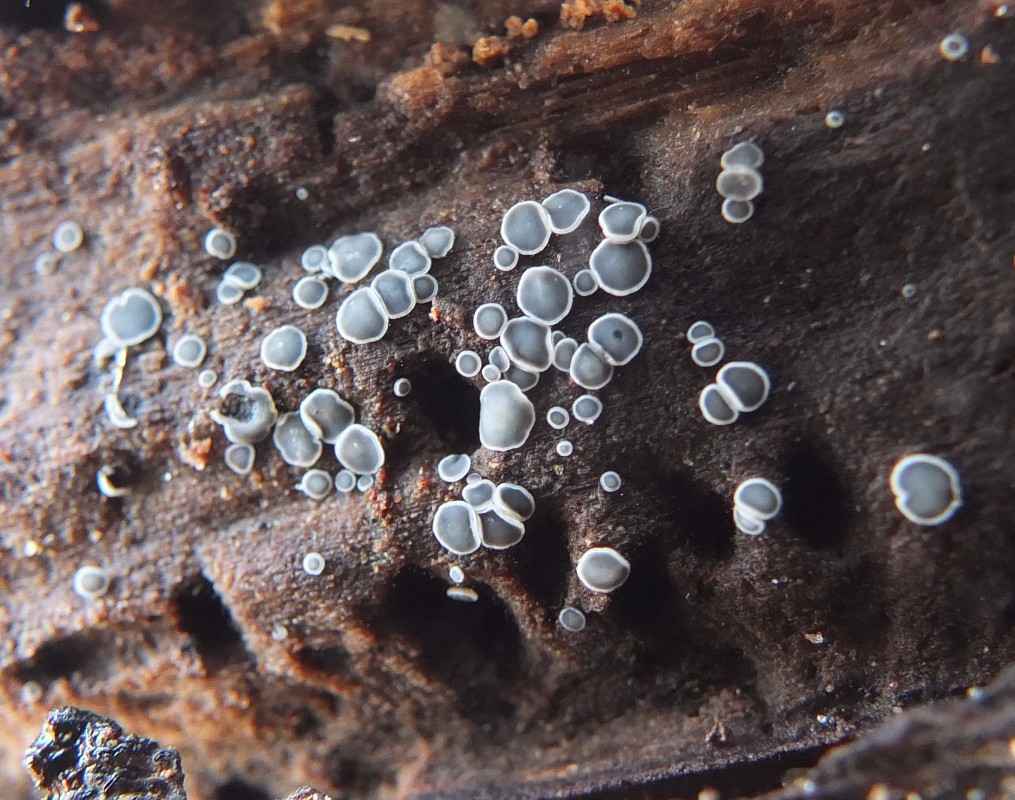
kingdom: Fungi
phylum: Ascomycota
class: Leotiomycetes
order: Helotiales
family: Mollisiaceae
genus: Mollisia
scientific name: Mollisia cinerea
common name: almindelig gråskive
